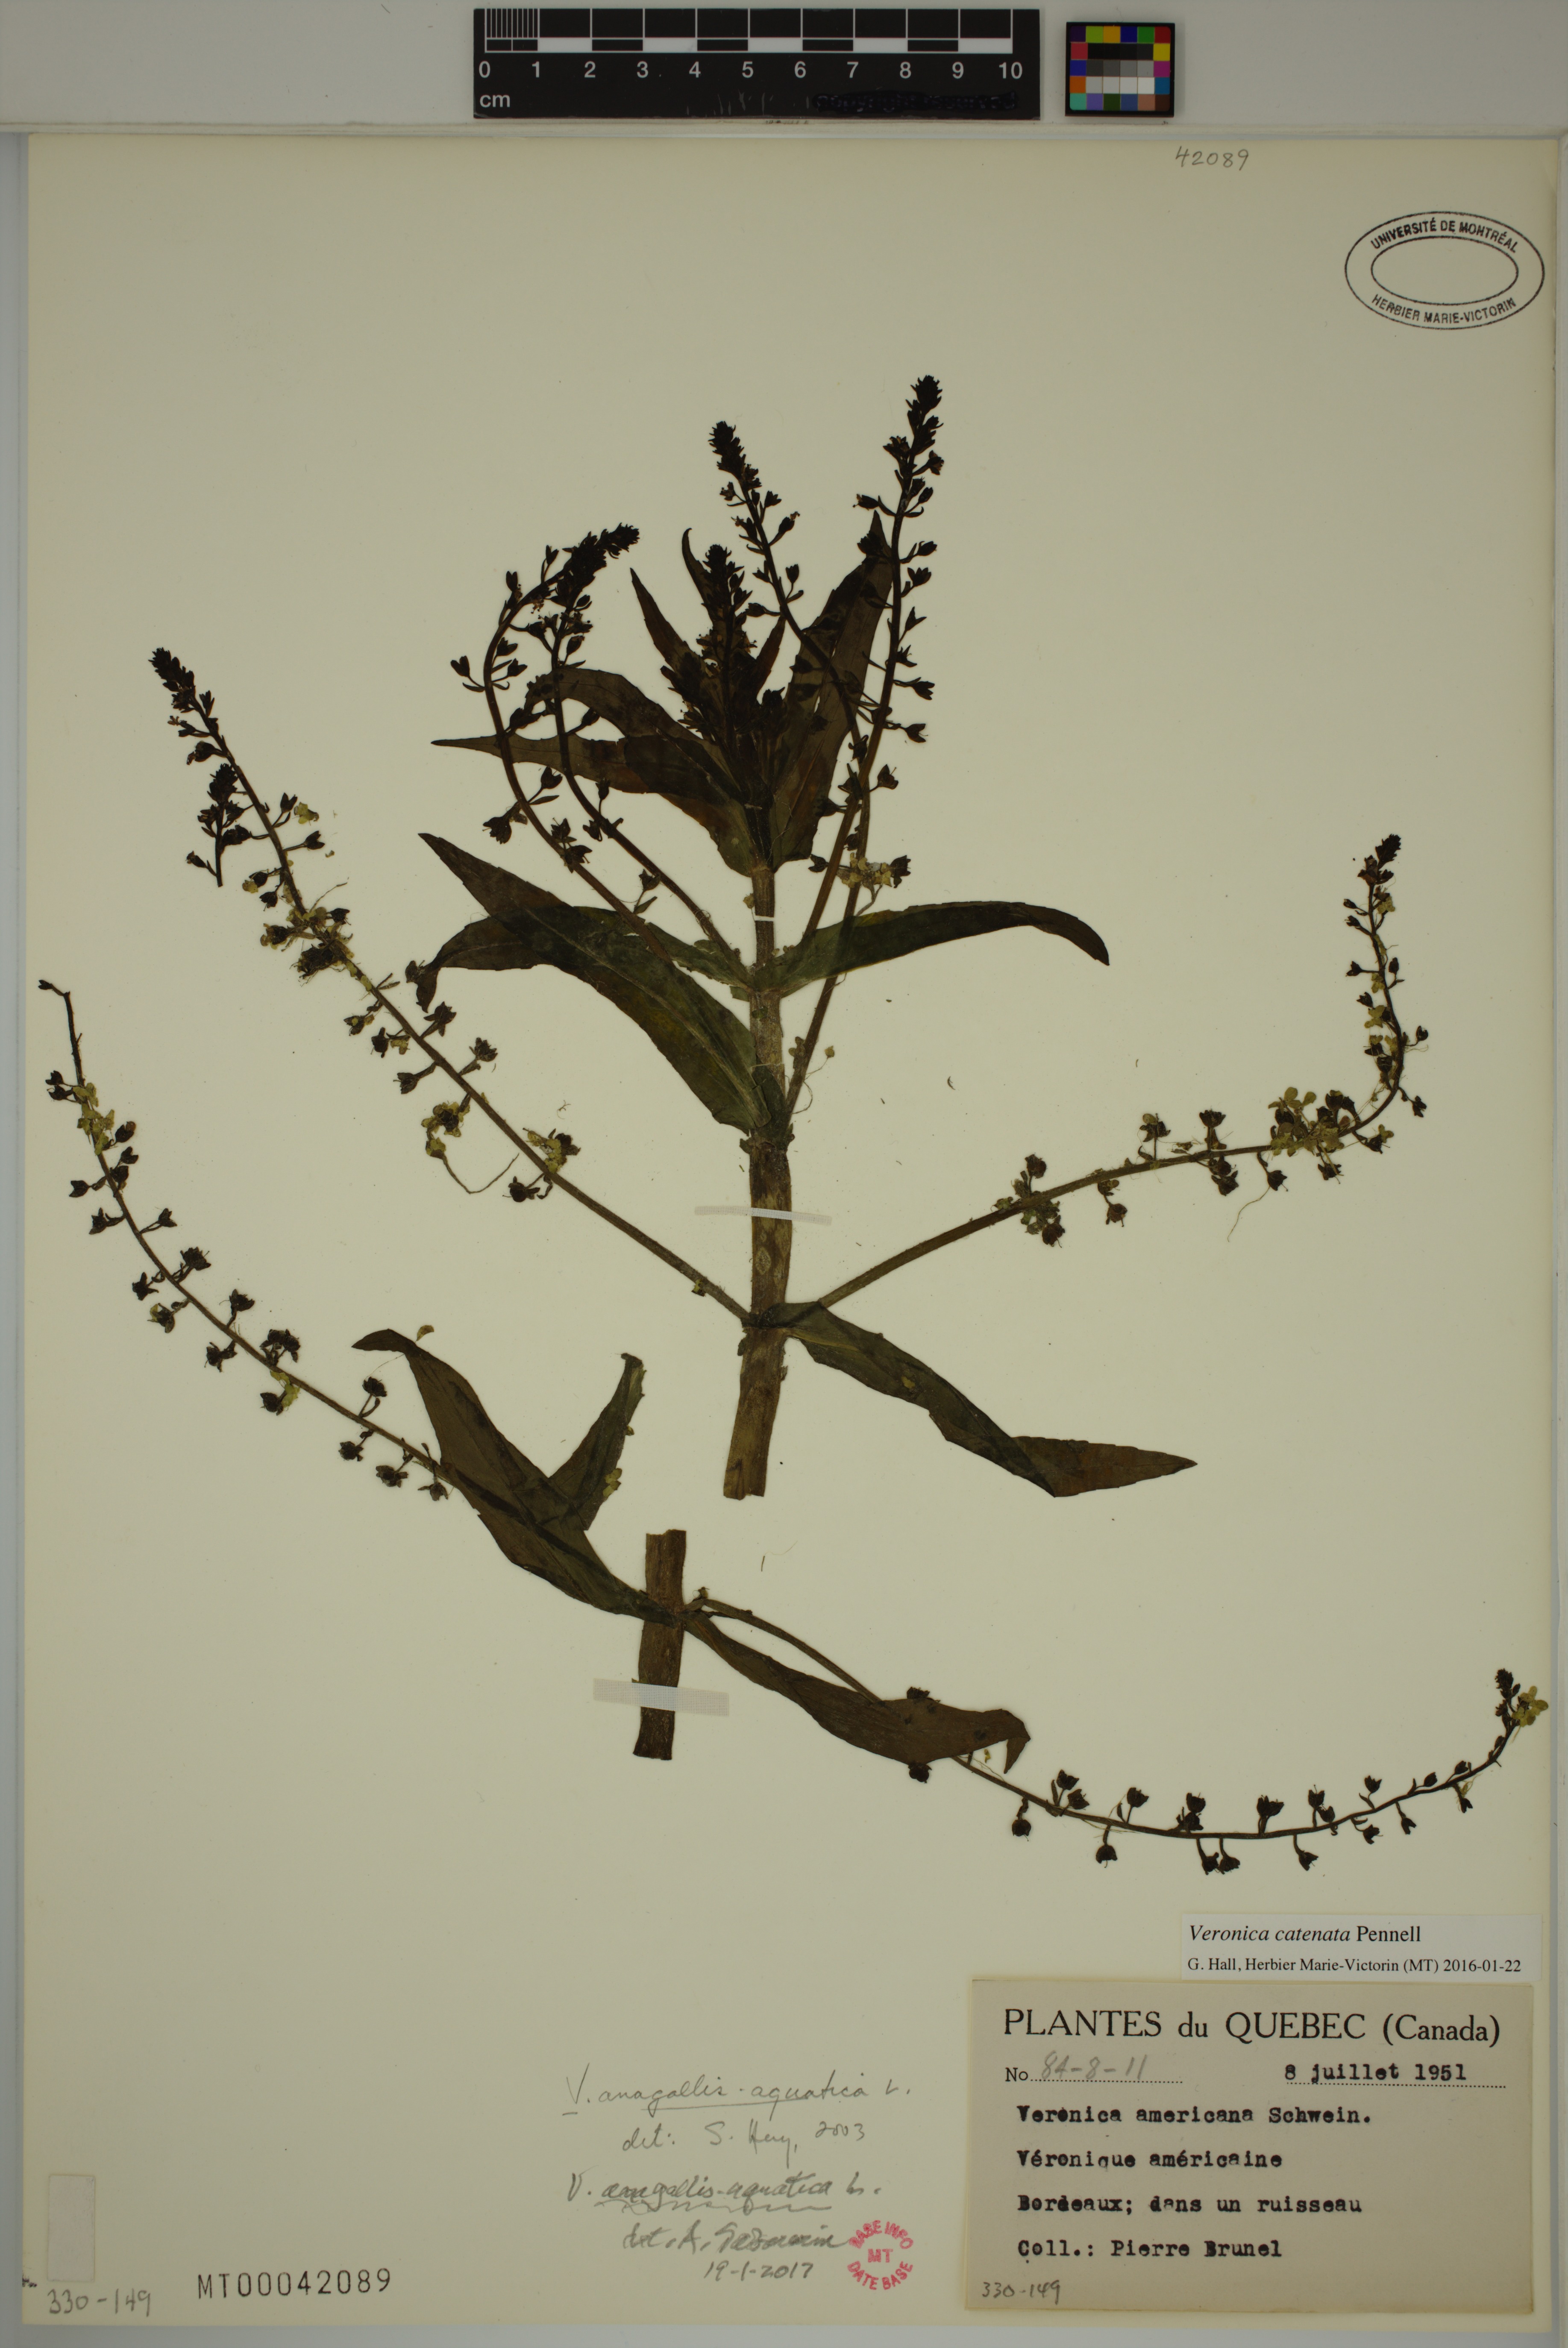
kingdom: Plantae
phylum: Tracheophyta
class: Magnoliopsida
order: Lamiales
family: Plantaginaceae
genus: Veronica
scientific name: Veronica anagallis-aquatica
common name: Water speedwell
